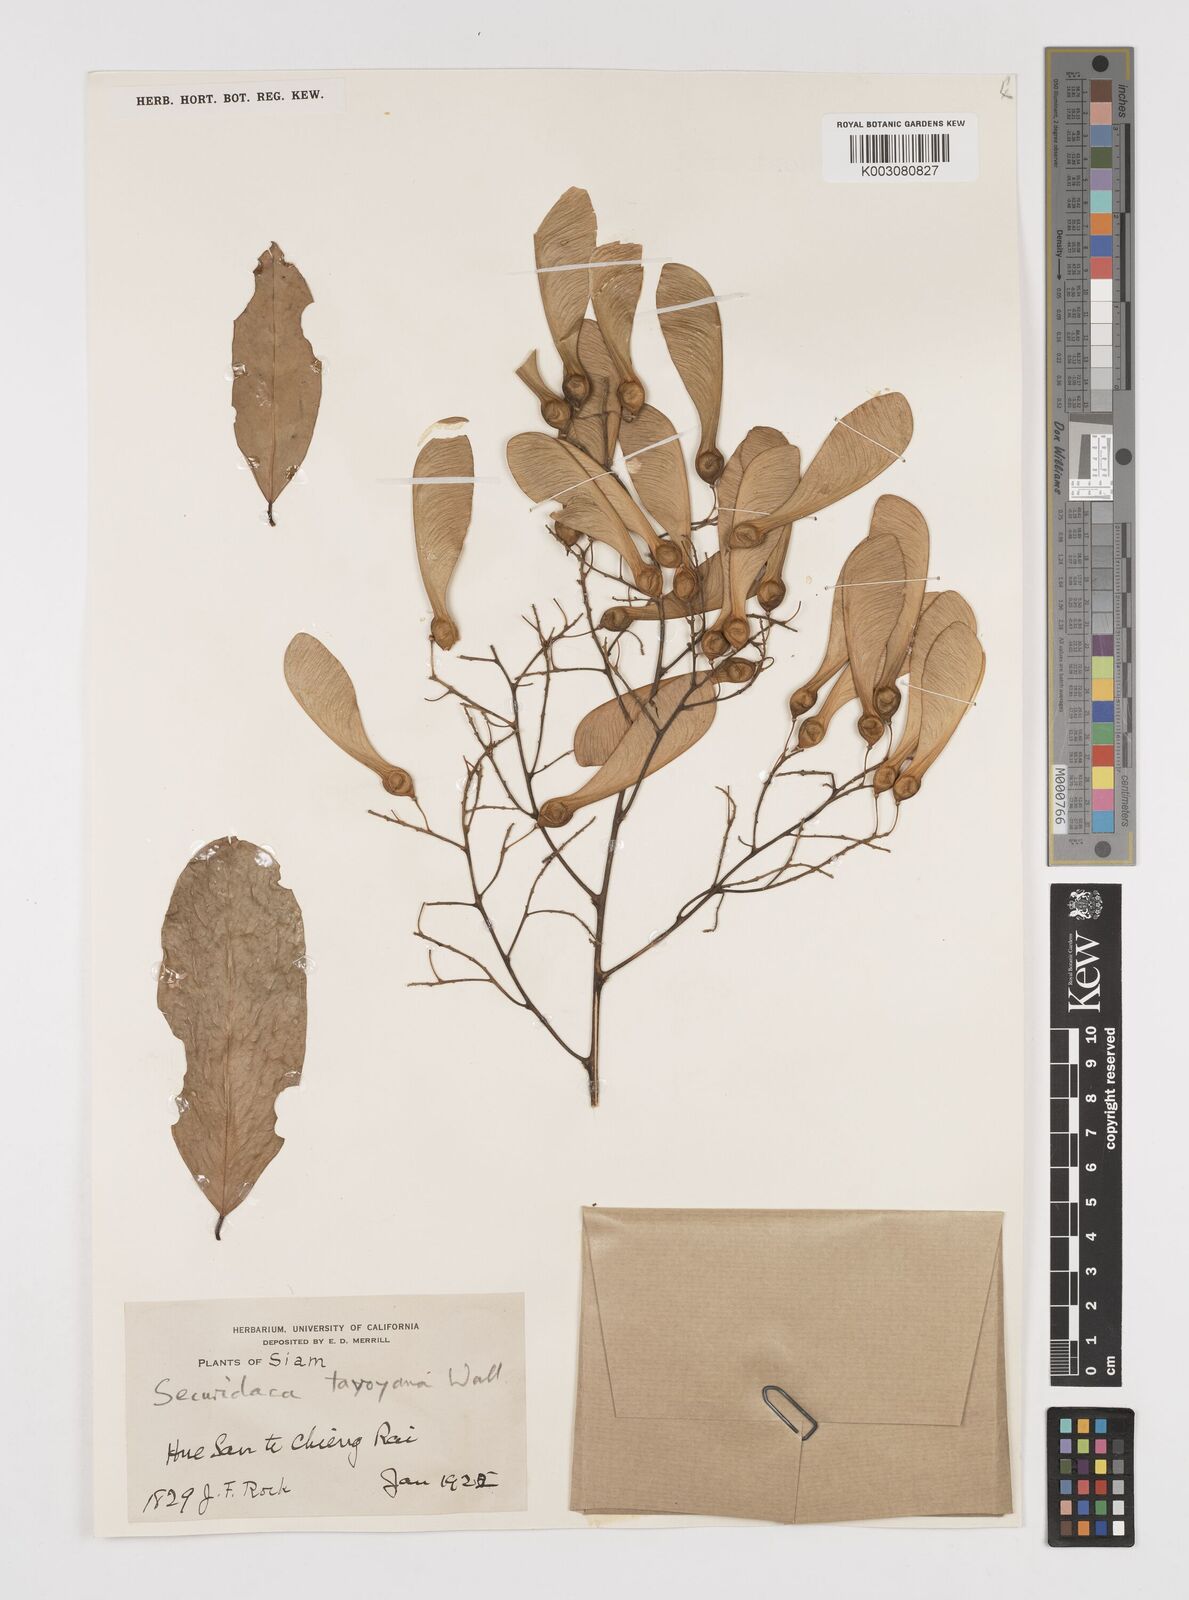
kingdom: Plantae
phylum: Tracheophyta
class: Magnoliopsida
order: Fabales
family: Polygalaceae
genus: Securidaca
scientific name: Securidaca inappendiculata
